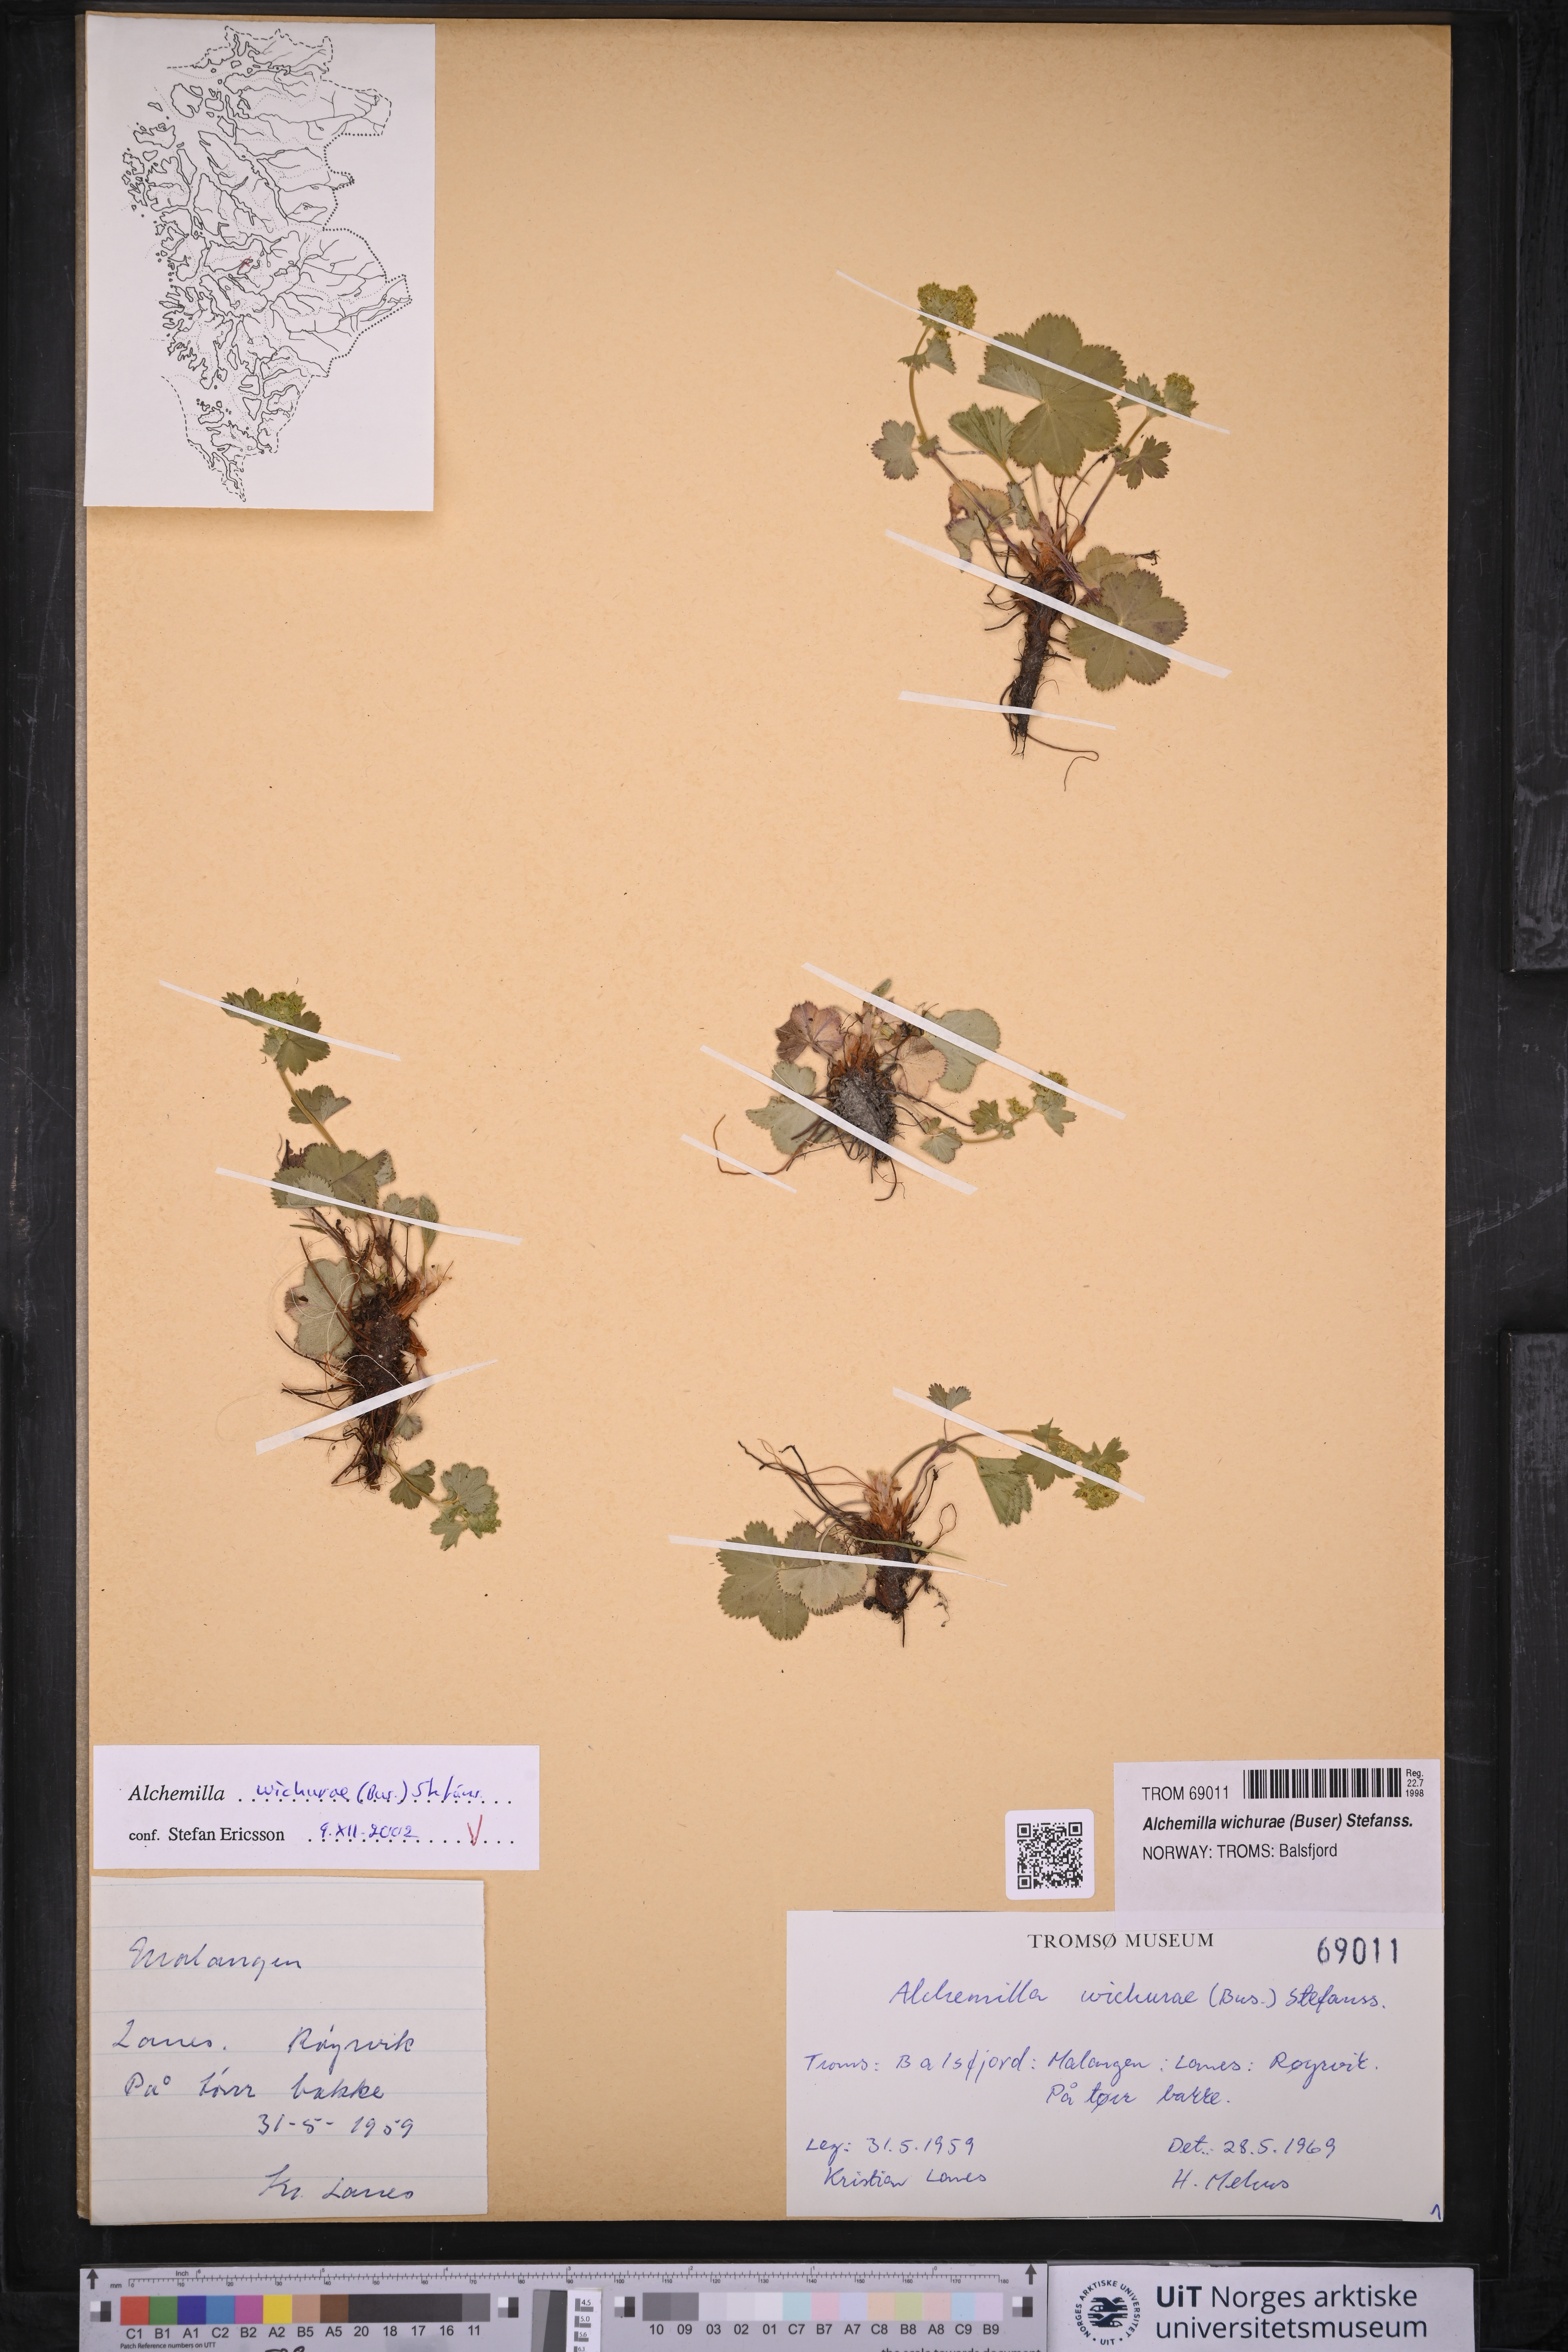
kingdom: Plantae
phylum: Tracheophyta
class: Magnoliopsida
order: Rosales
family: Rosaceae
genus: Alchemilla
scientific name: Alchemilla wichurae
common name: Rock lady's mantle
